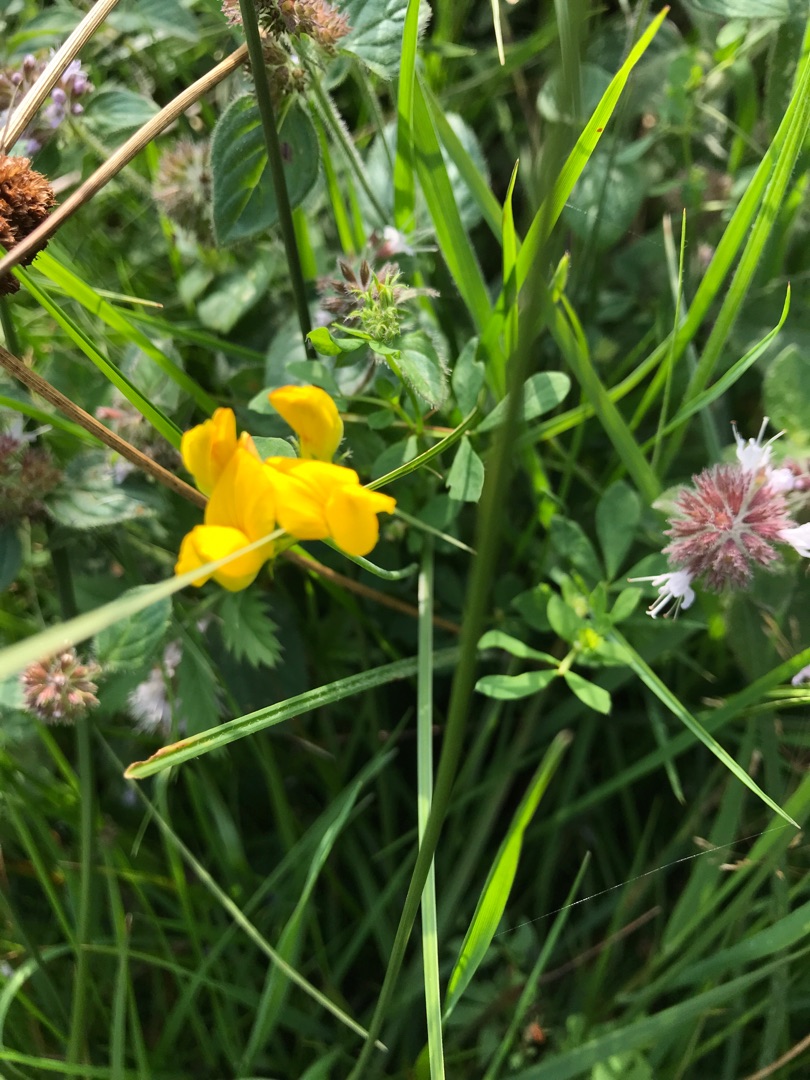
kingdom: Plantae
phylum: Tracheophyta
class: Magnoliopsida
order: Fabales
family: Fabaceae
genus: Lotus
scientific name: Lotus pedunculatus
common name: Sump-kællingetand
